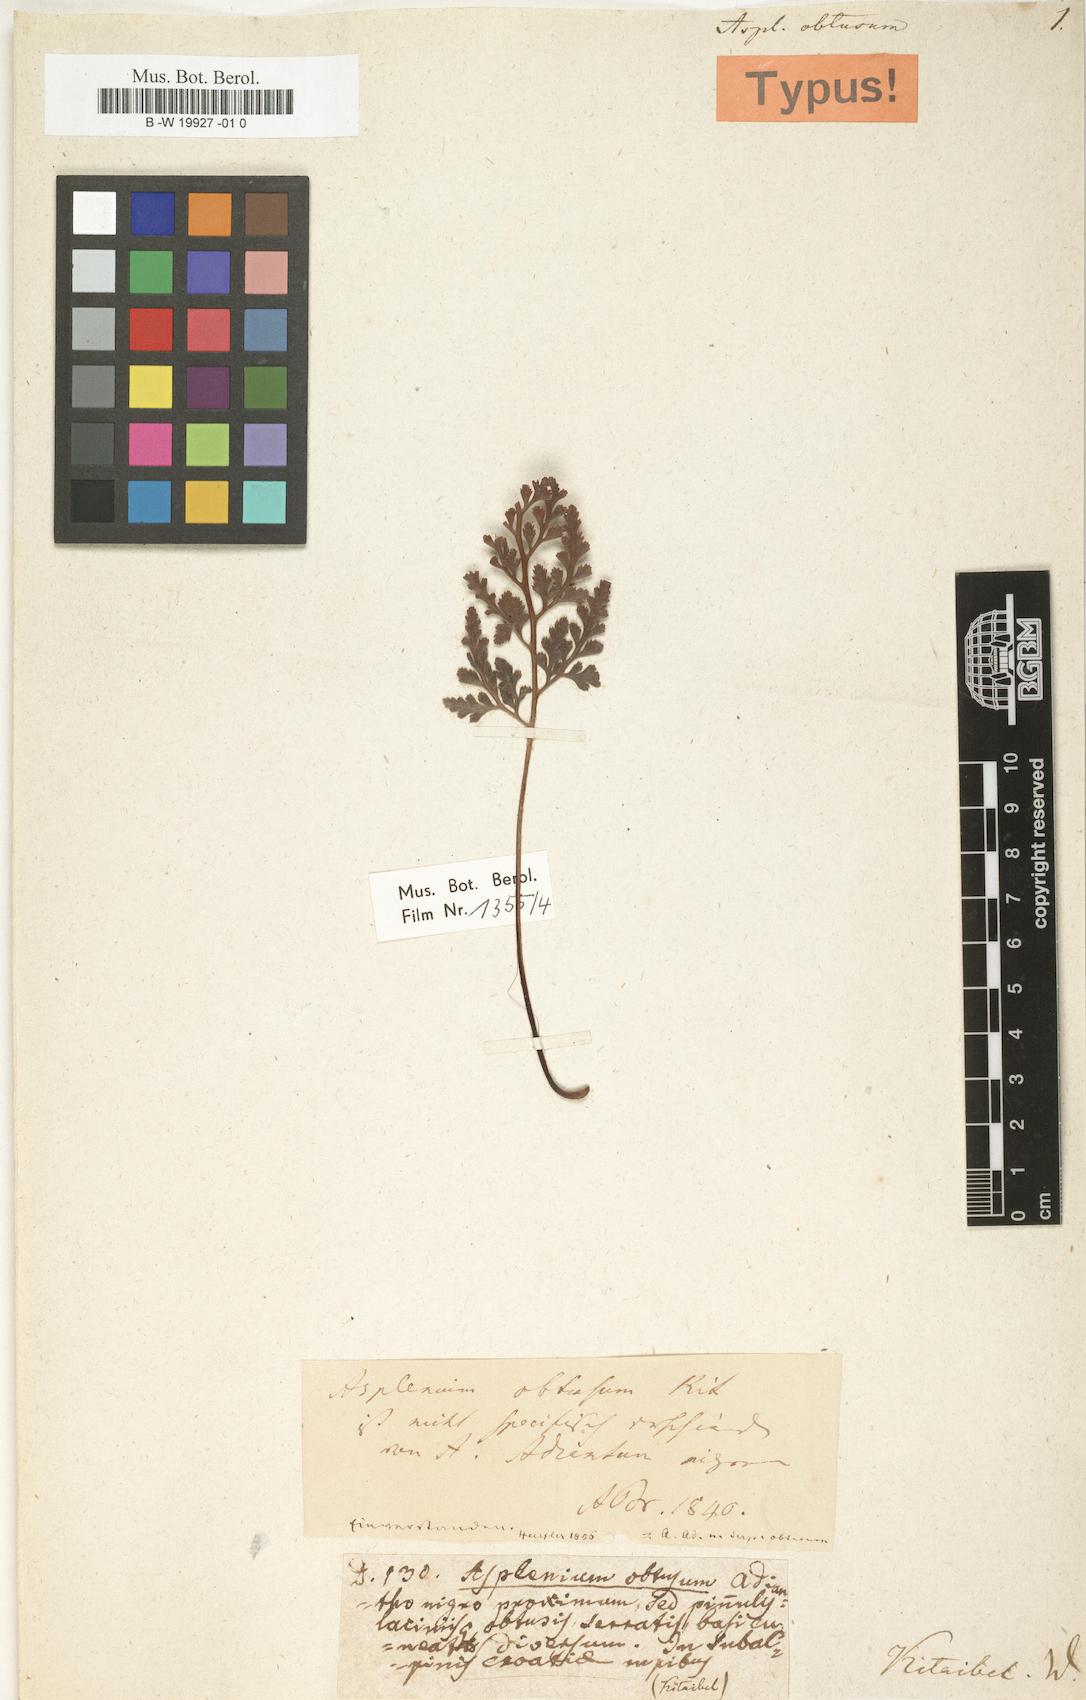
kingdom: Plantae
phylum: Tracheophyta
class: Polypodiopsida
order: Polypodiales
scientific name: Polypodiales
